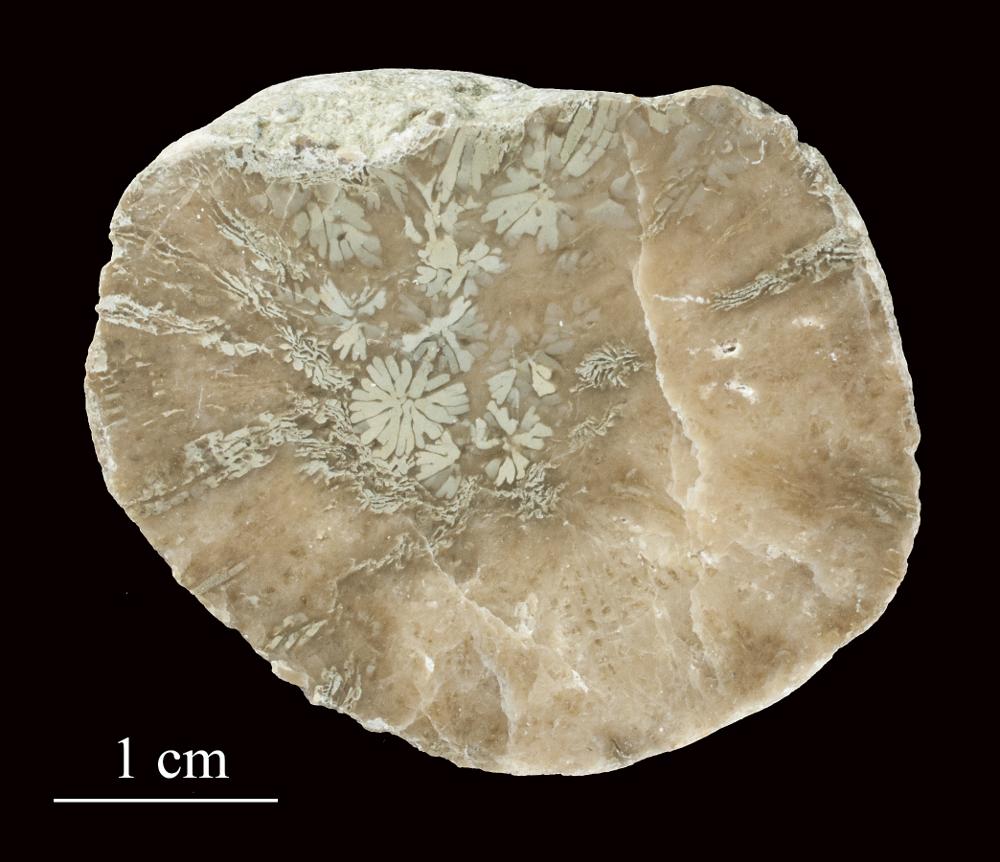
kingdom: Animalia
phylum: Cnidaria
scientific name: Cnidaria
